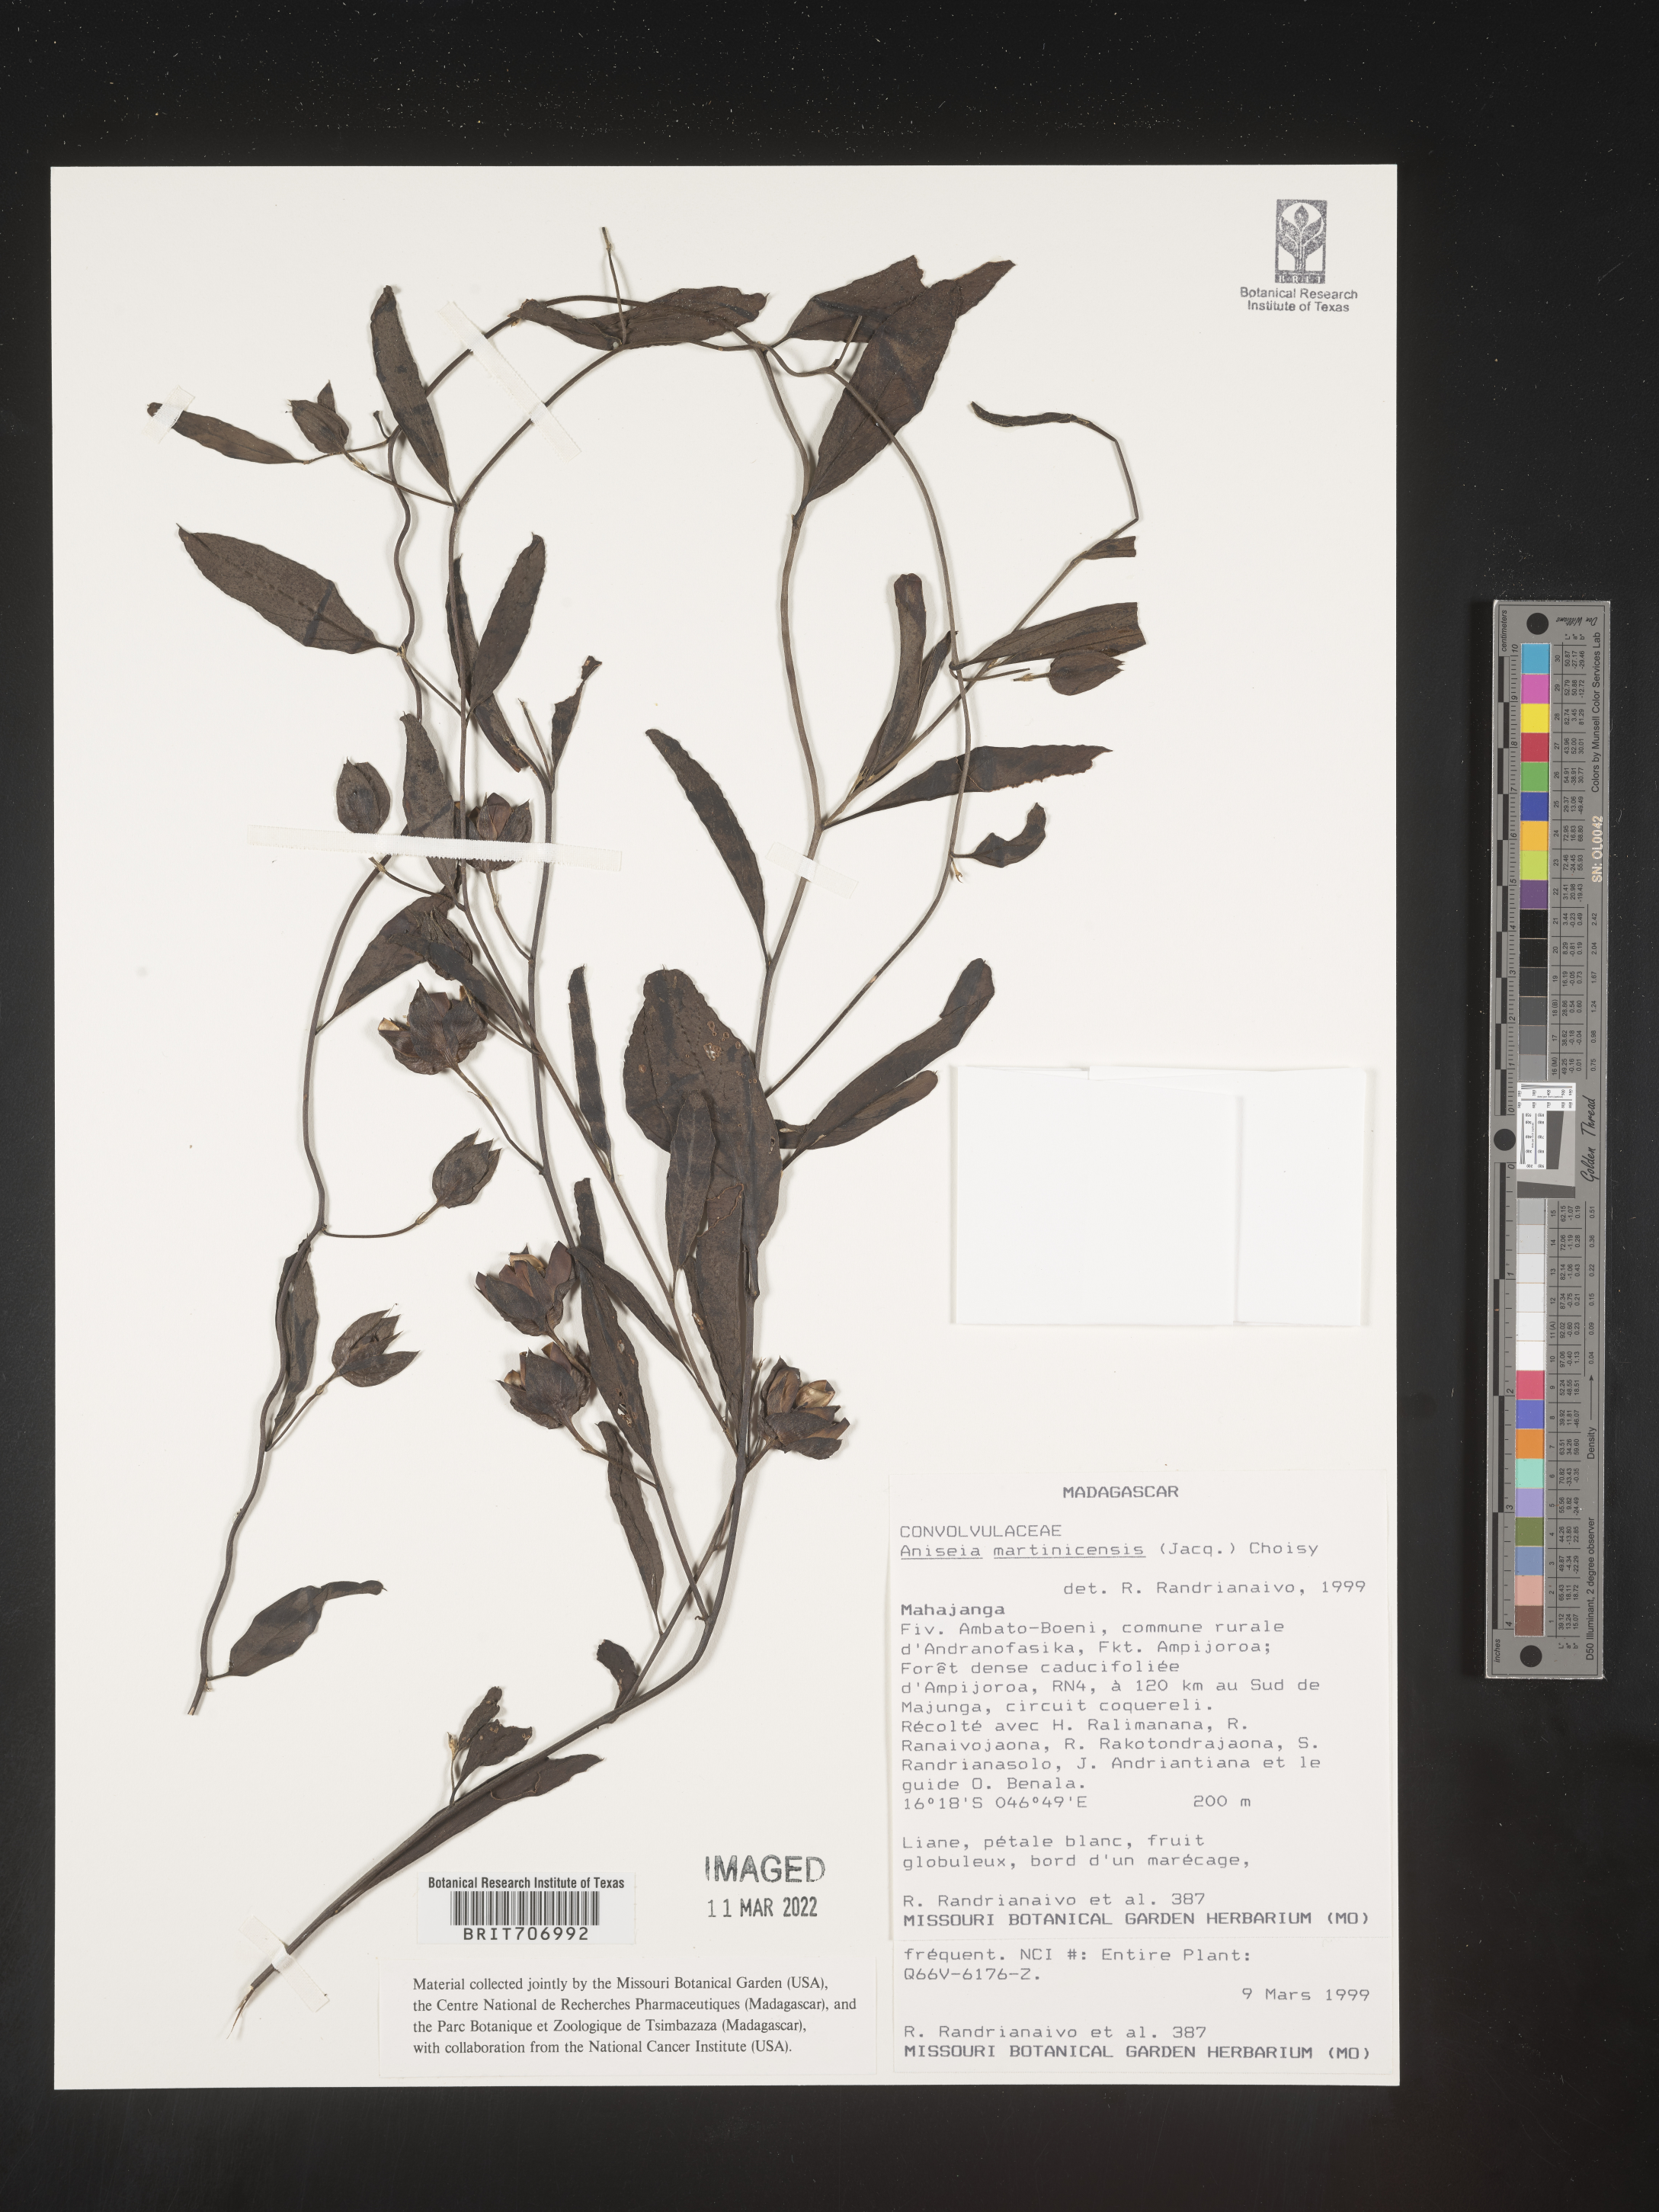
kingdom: Plantae
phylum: Tracheophyta
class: Magnoliopsida
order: Solanales
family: Convolvulaceae
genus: Aniseia
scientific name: Aniseia
